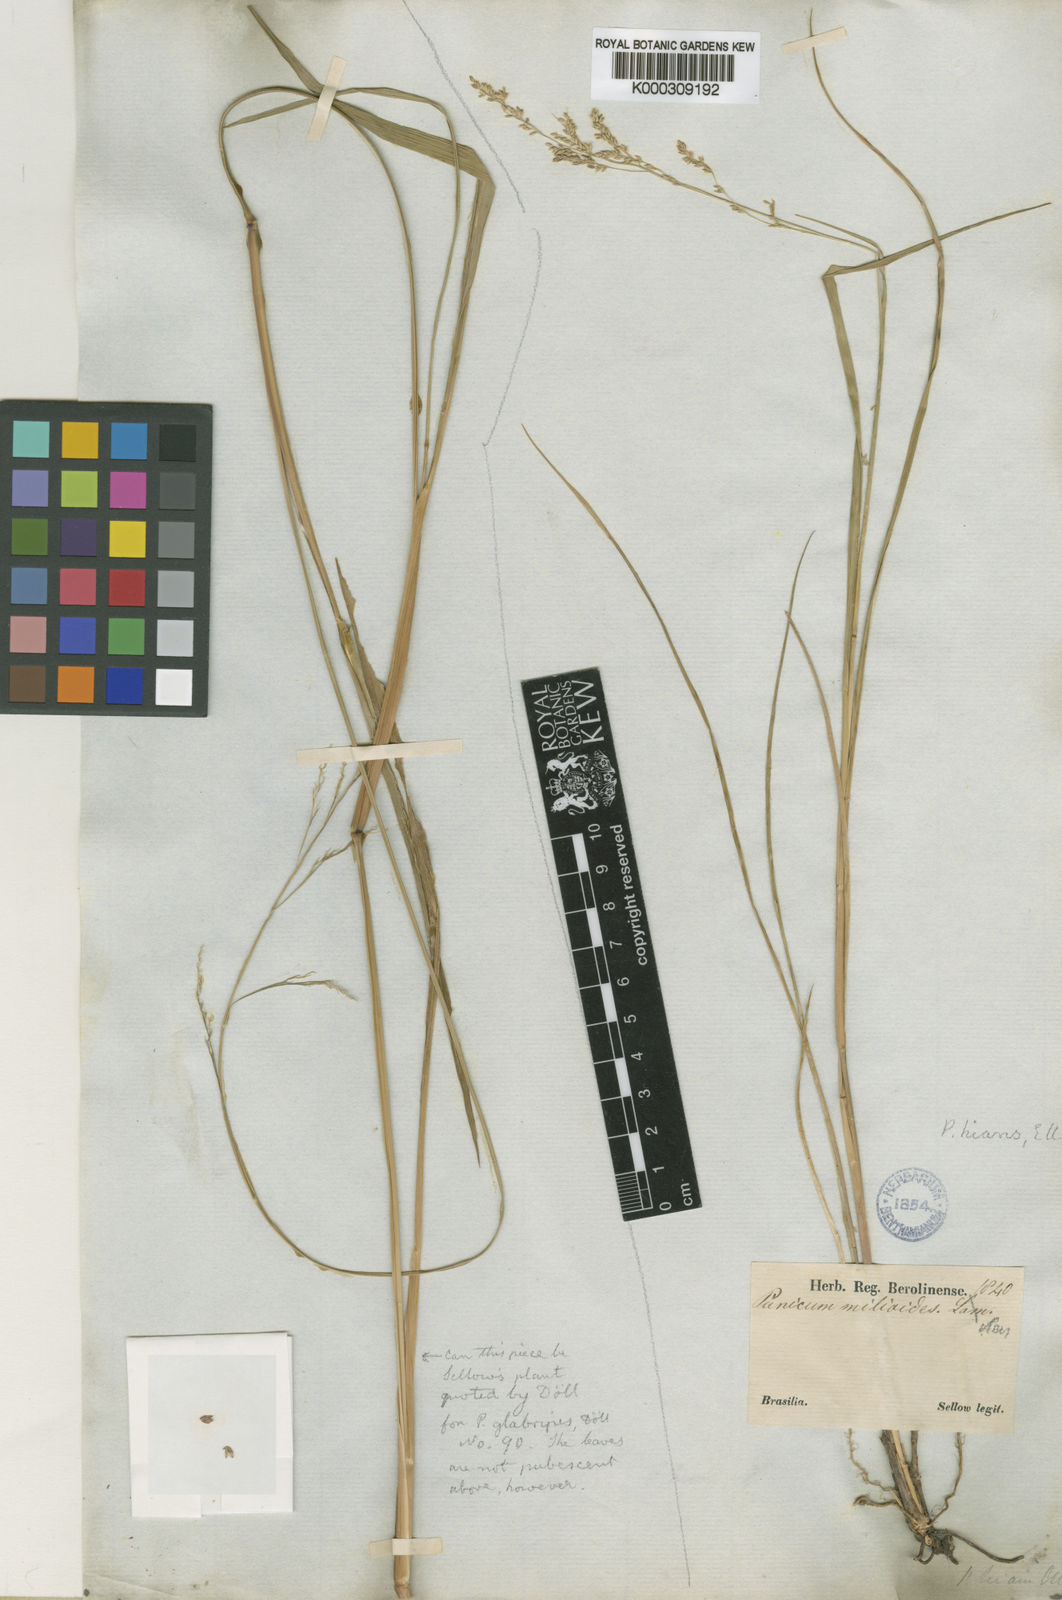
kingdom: Plantae
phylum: Tracheophyta
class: Liliopsida
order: Poales
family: Poaceae
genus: Panicum
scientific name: Panicum
